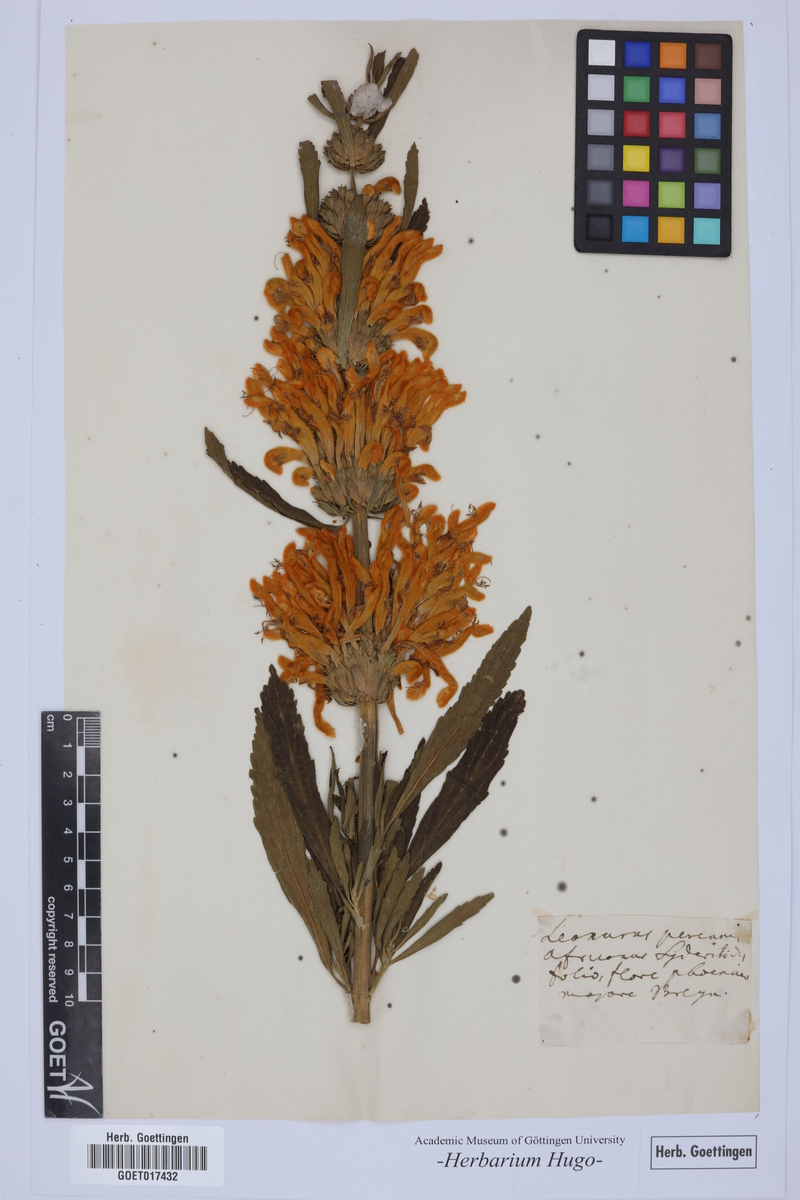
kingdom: Plantae
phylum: Tracheophyta
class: Magnoliopsida
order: Lamiales
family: Lamiaceae
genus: Leonotis
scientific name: Leonotis leonurus
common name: Lion's ear
